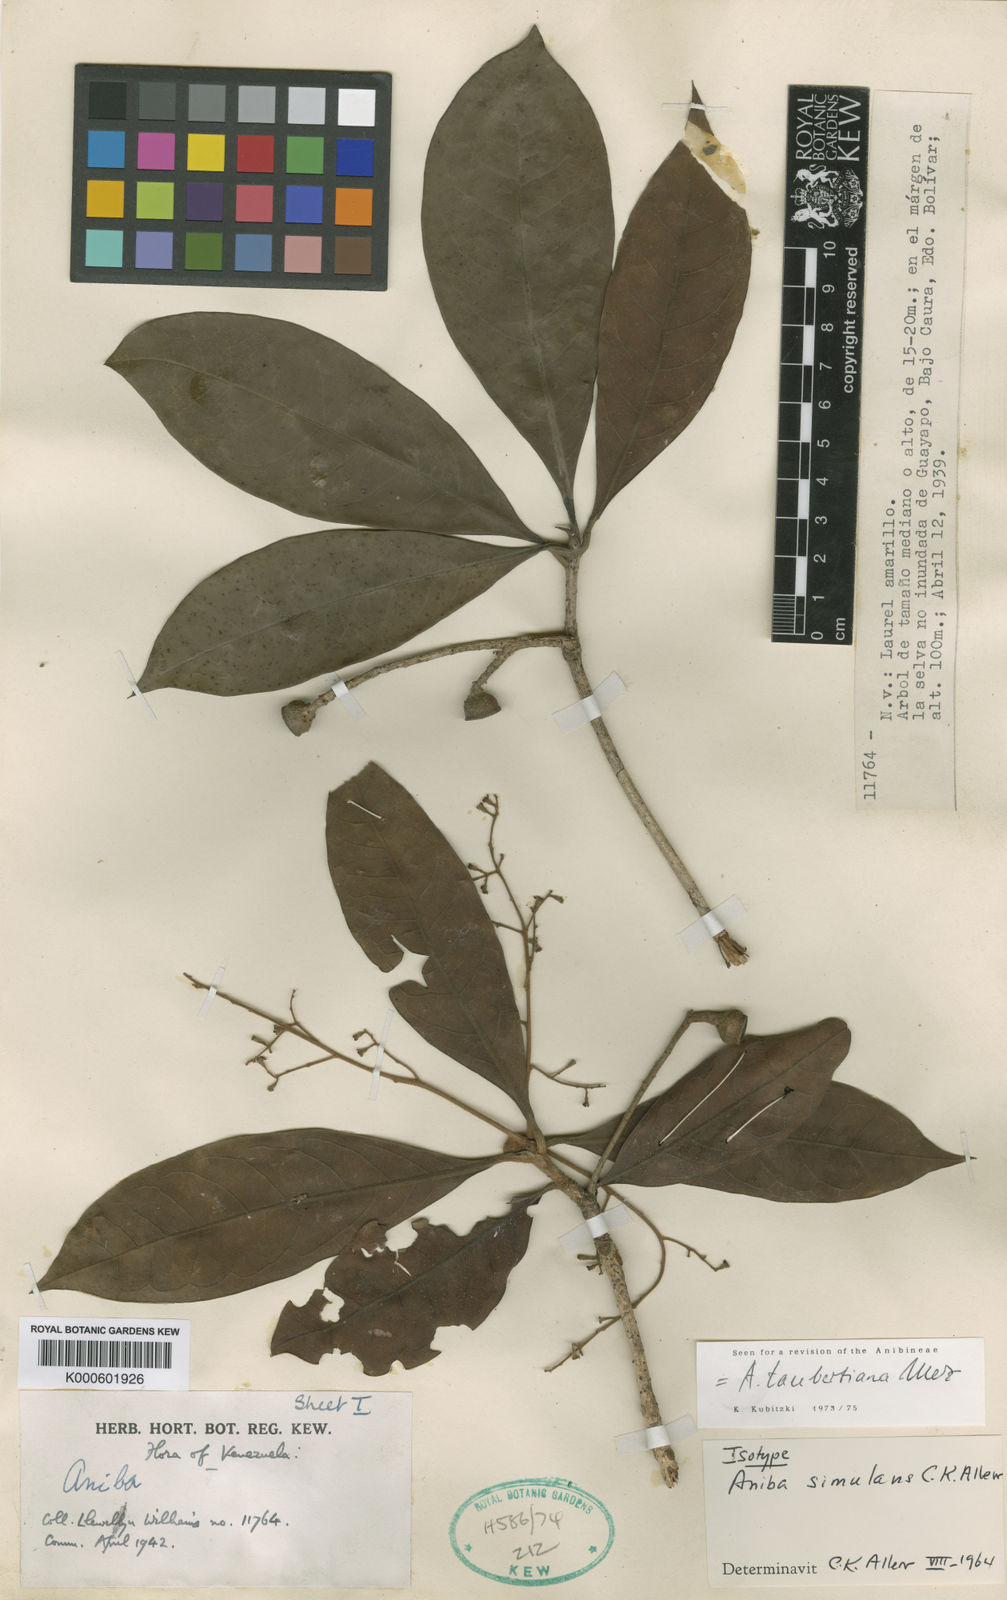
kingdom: Plantae
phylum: Tracheophyta
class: Magnoliopsida
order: Laurales
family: Lauraceae
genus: Aniba
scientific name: Aniba taubertiana
